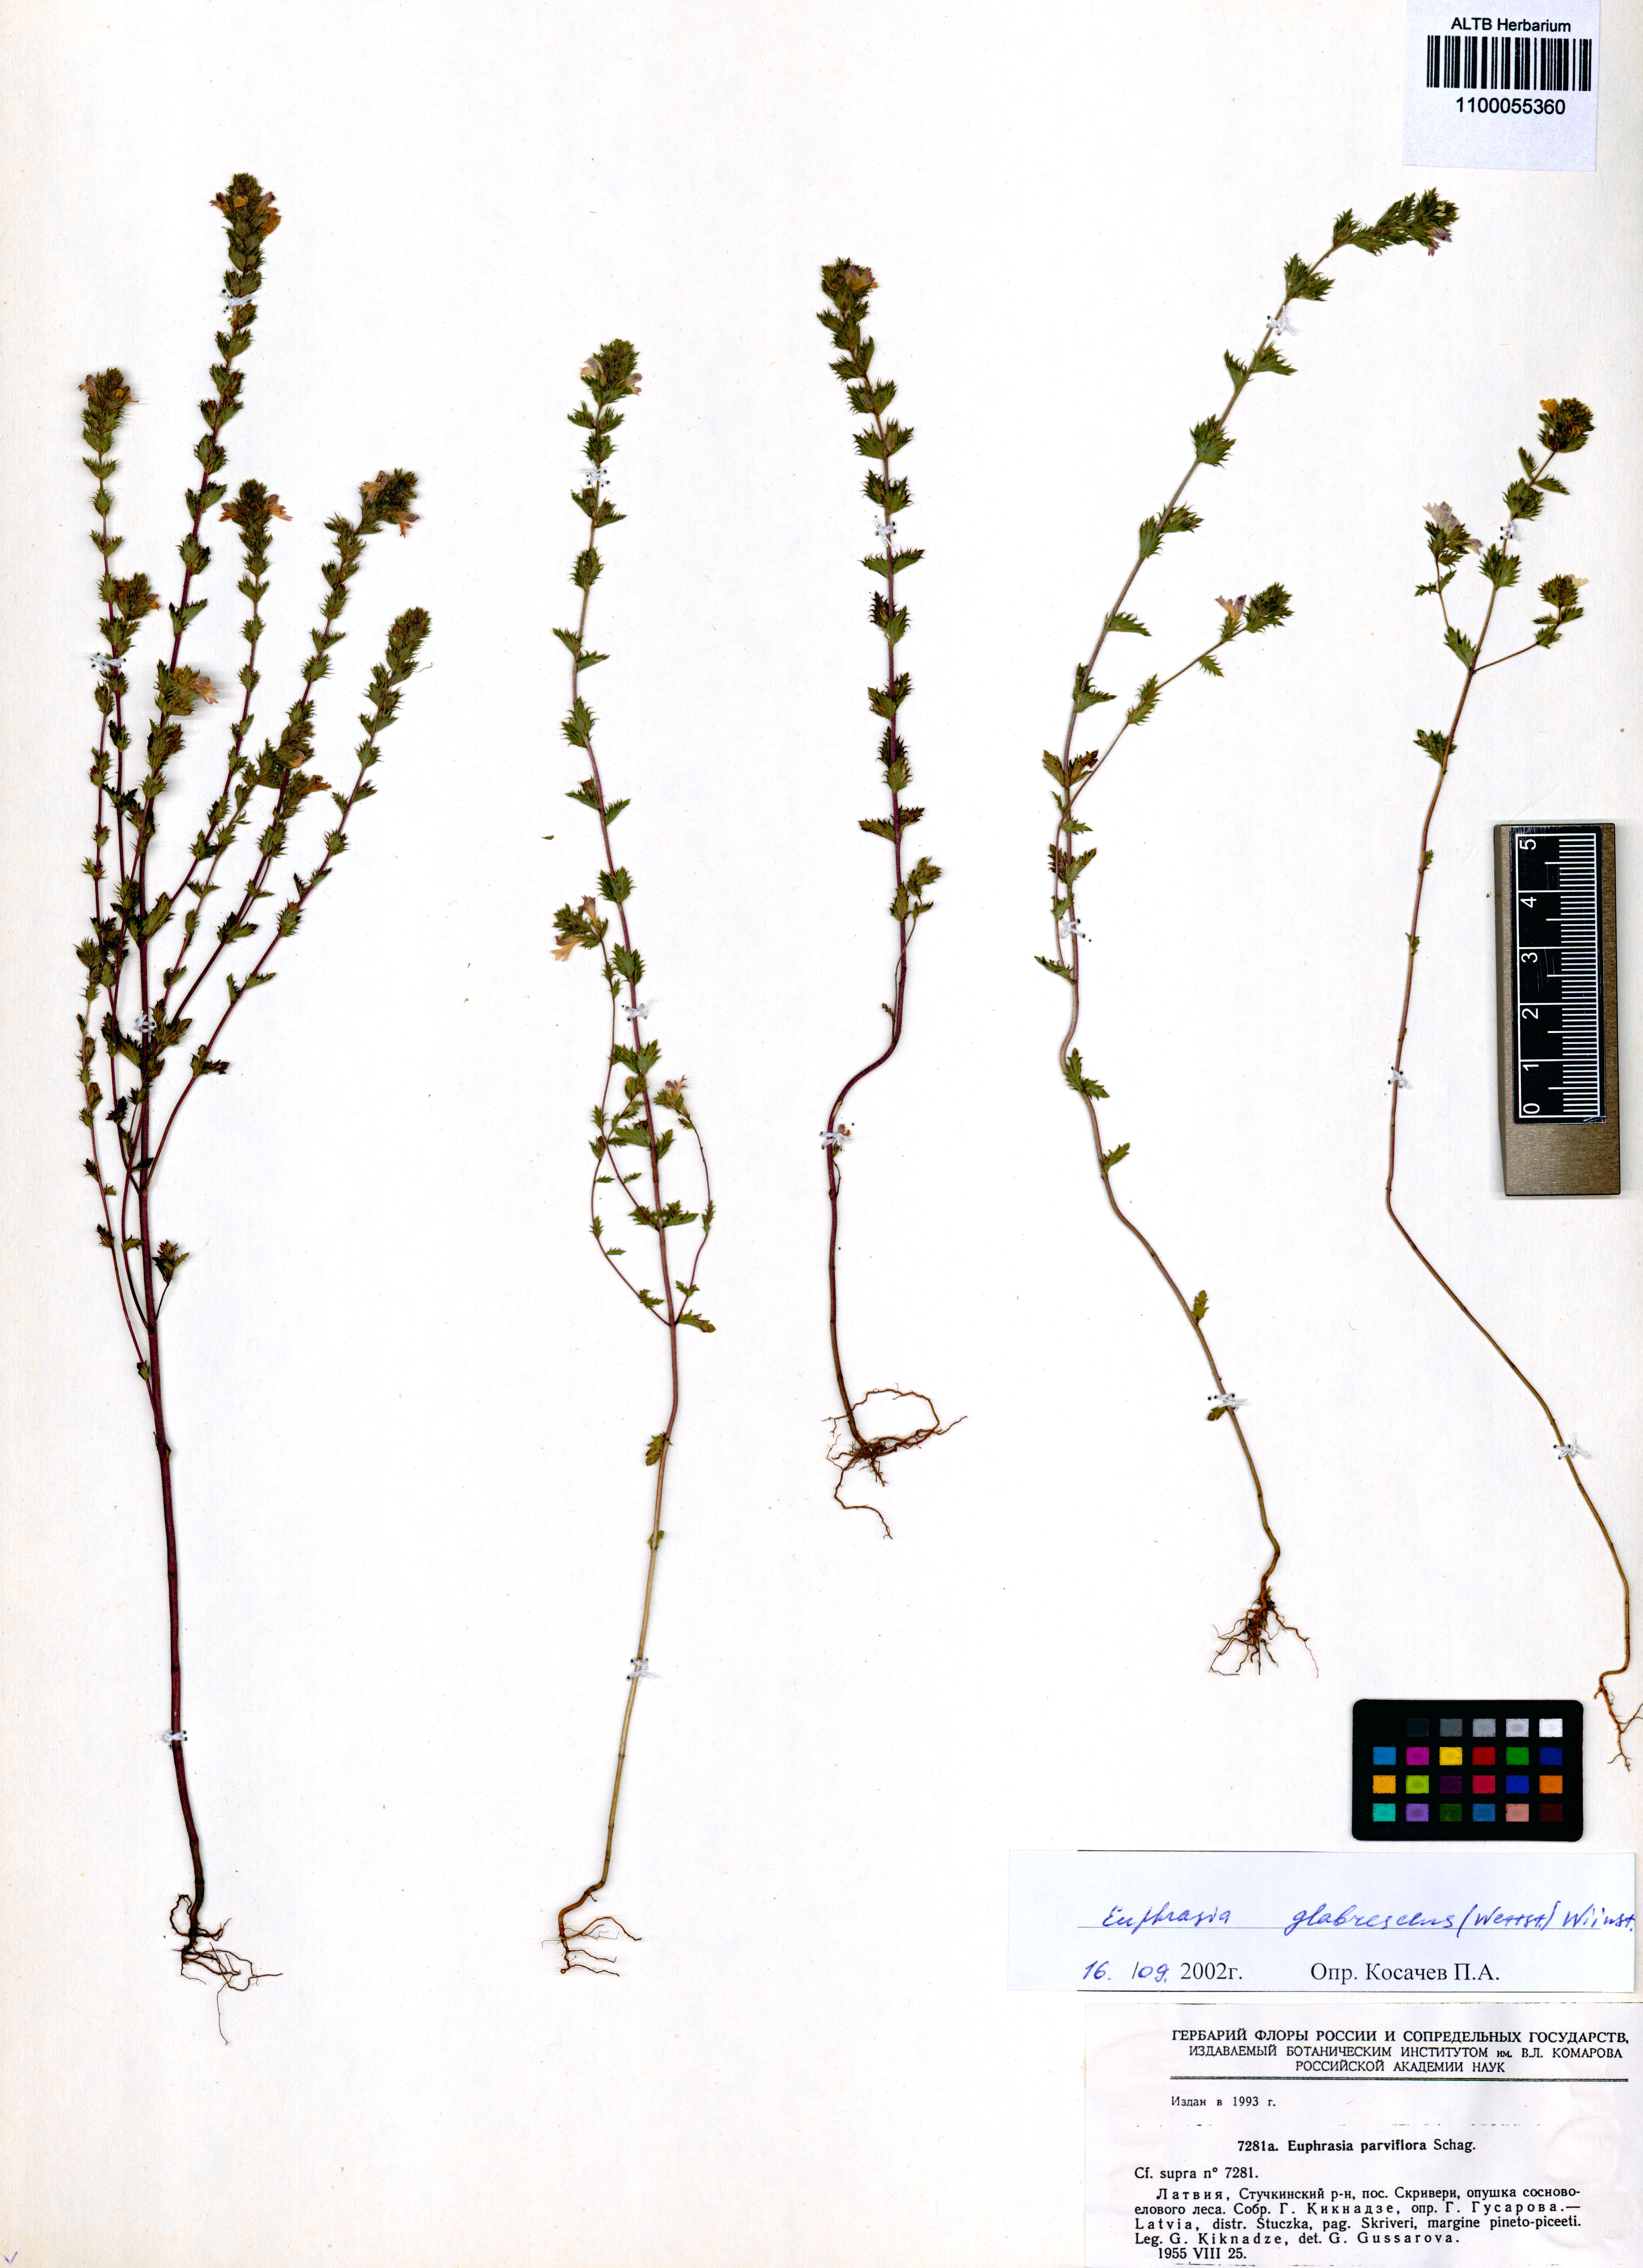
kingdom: Plantae
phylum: Tracheophyta
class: Magnoliopsida
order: Lamiales
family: Orobanchaceae
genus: Euphrasia
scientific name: Euphrasia micrantha
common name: Northern eyebright
